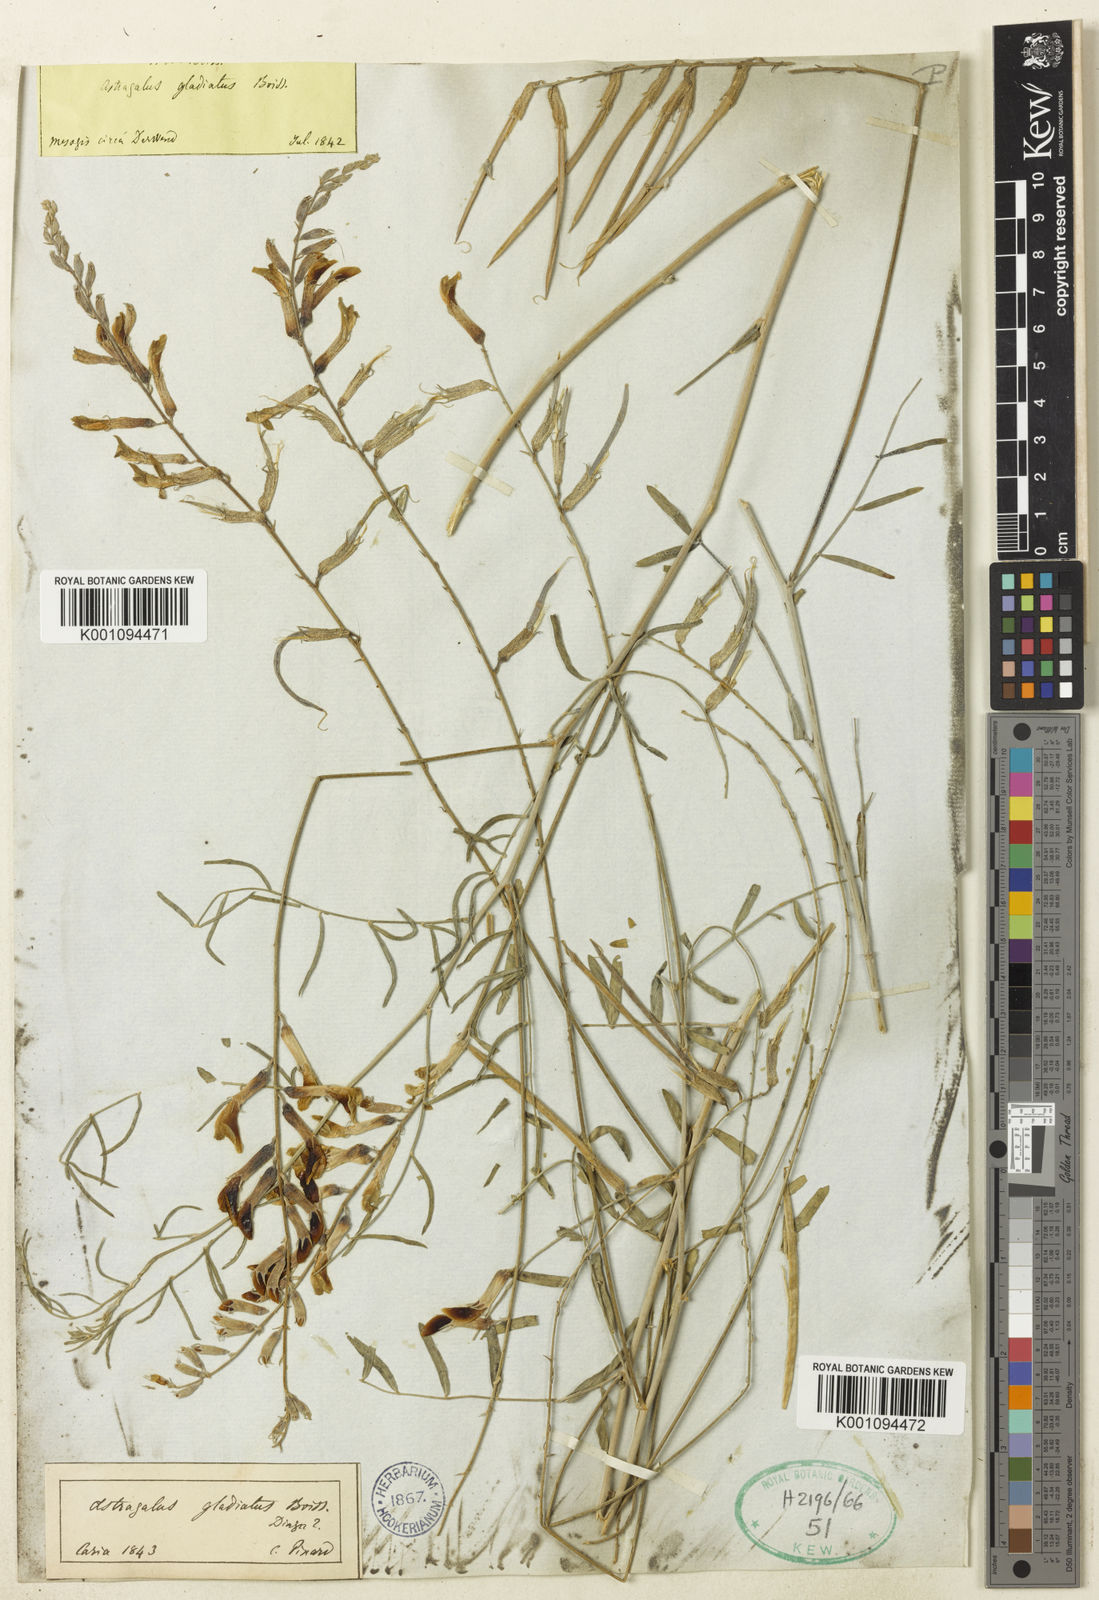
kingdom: Plantae
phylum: Tracheophyta
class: Magnoliopsida
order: Fabales
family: Fabaceae
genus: Astragalus
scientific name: Astragalus
